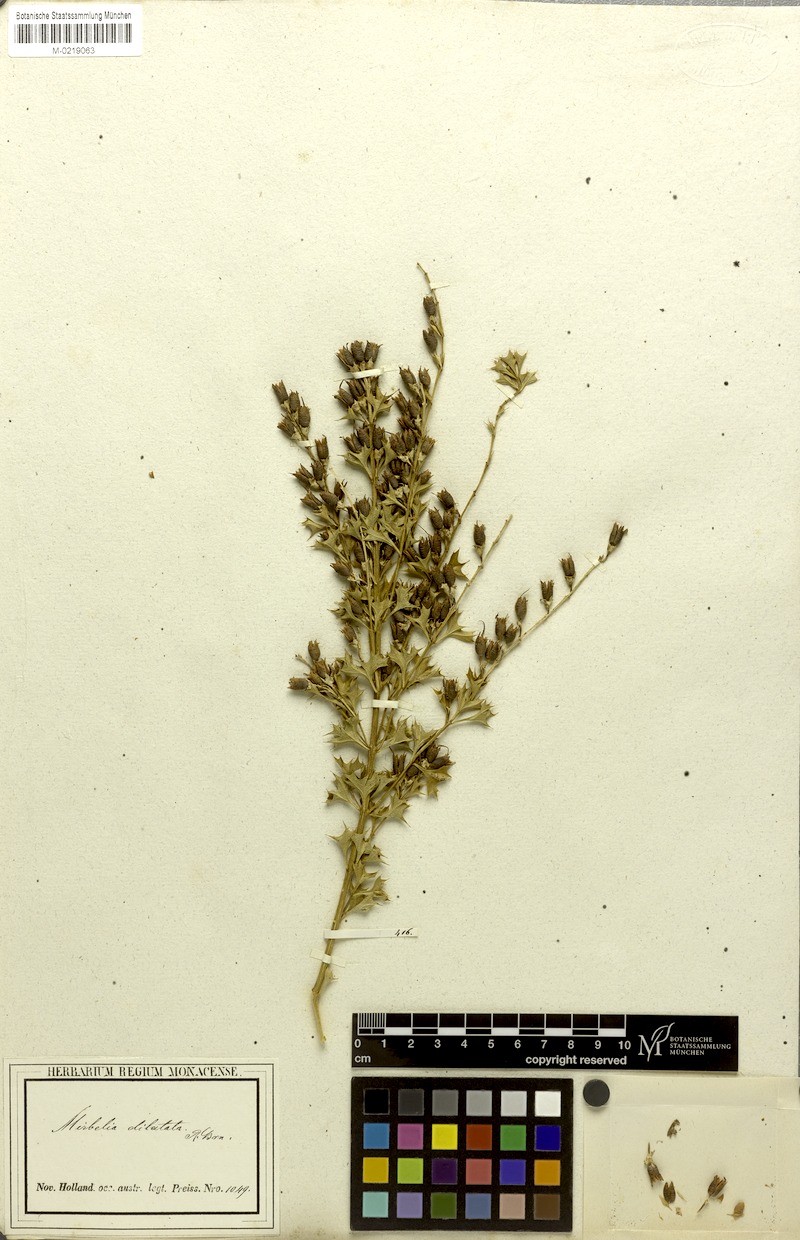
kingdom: Plantae
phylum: Tracheophyta
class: Magnoliopsida
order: Fabales
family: Fabaceae
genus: Mirbelia
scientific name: Mirbelia dilatata
